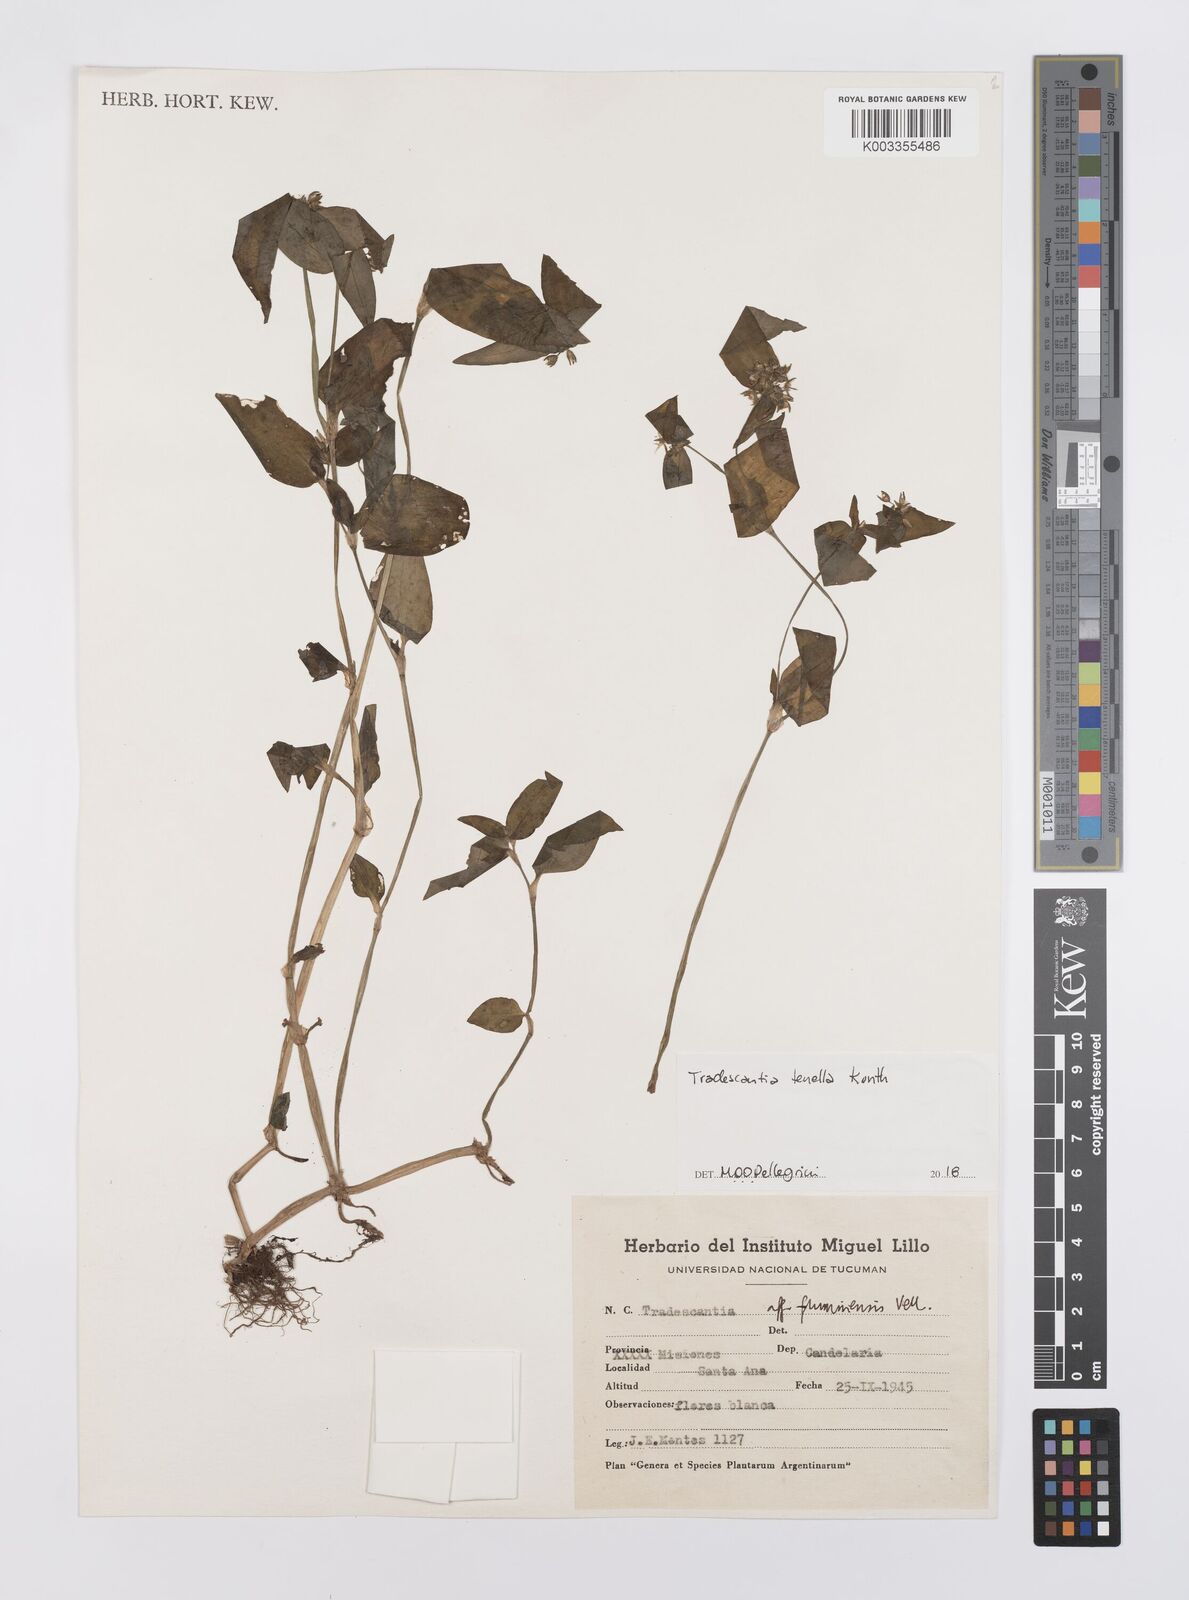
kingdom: Plantae
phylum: Tracheophyta
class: Liliopsida
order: Commelinales
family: Commelinaceae
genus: Tradescantia
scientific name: Tradescantia tenella
